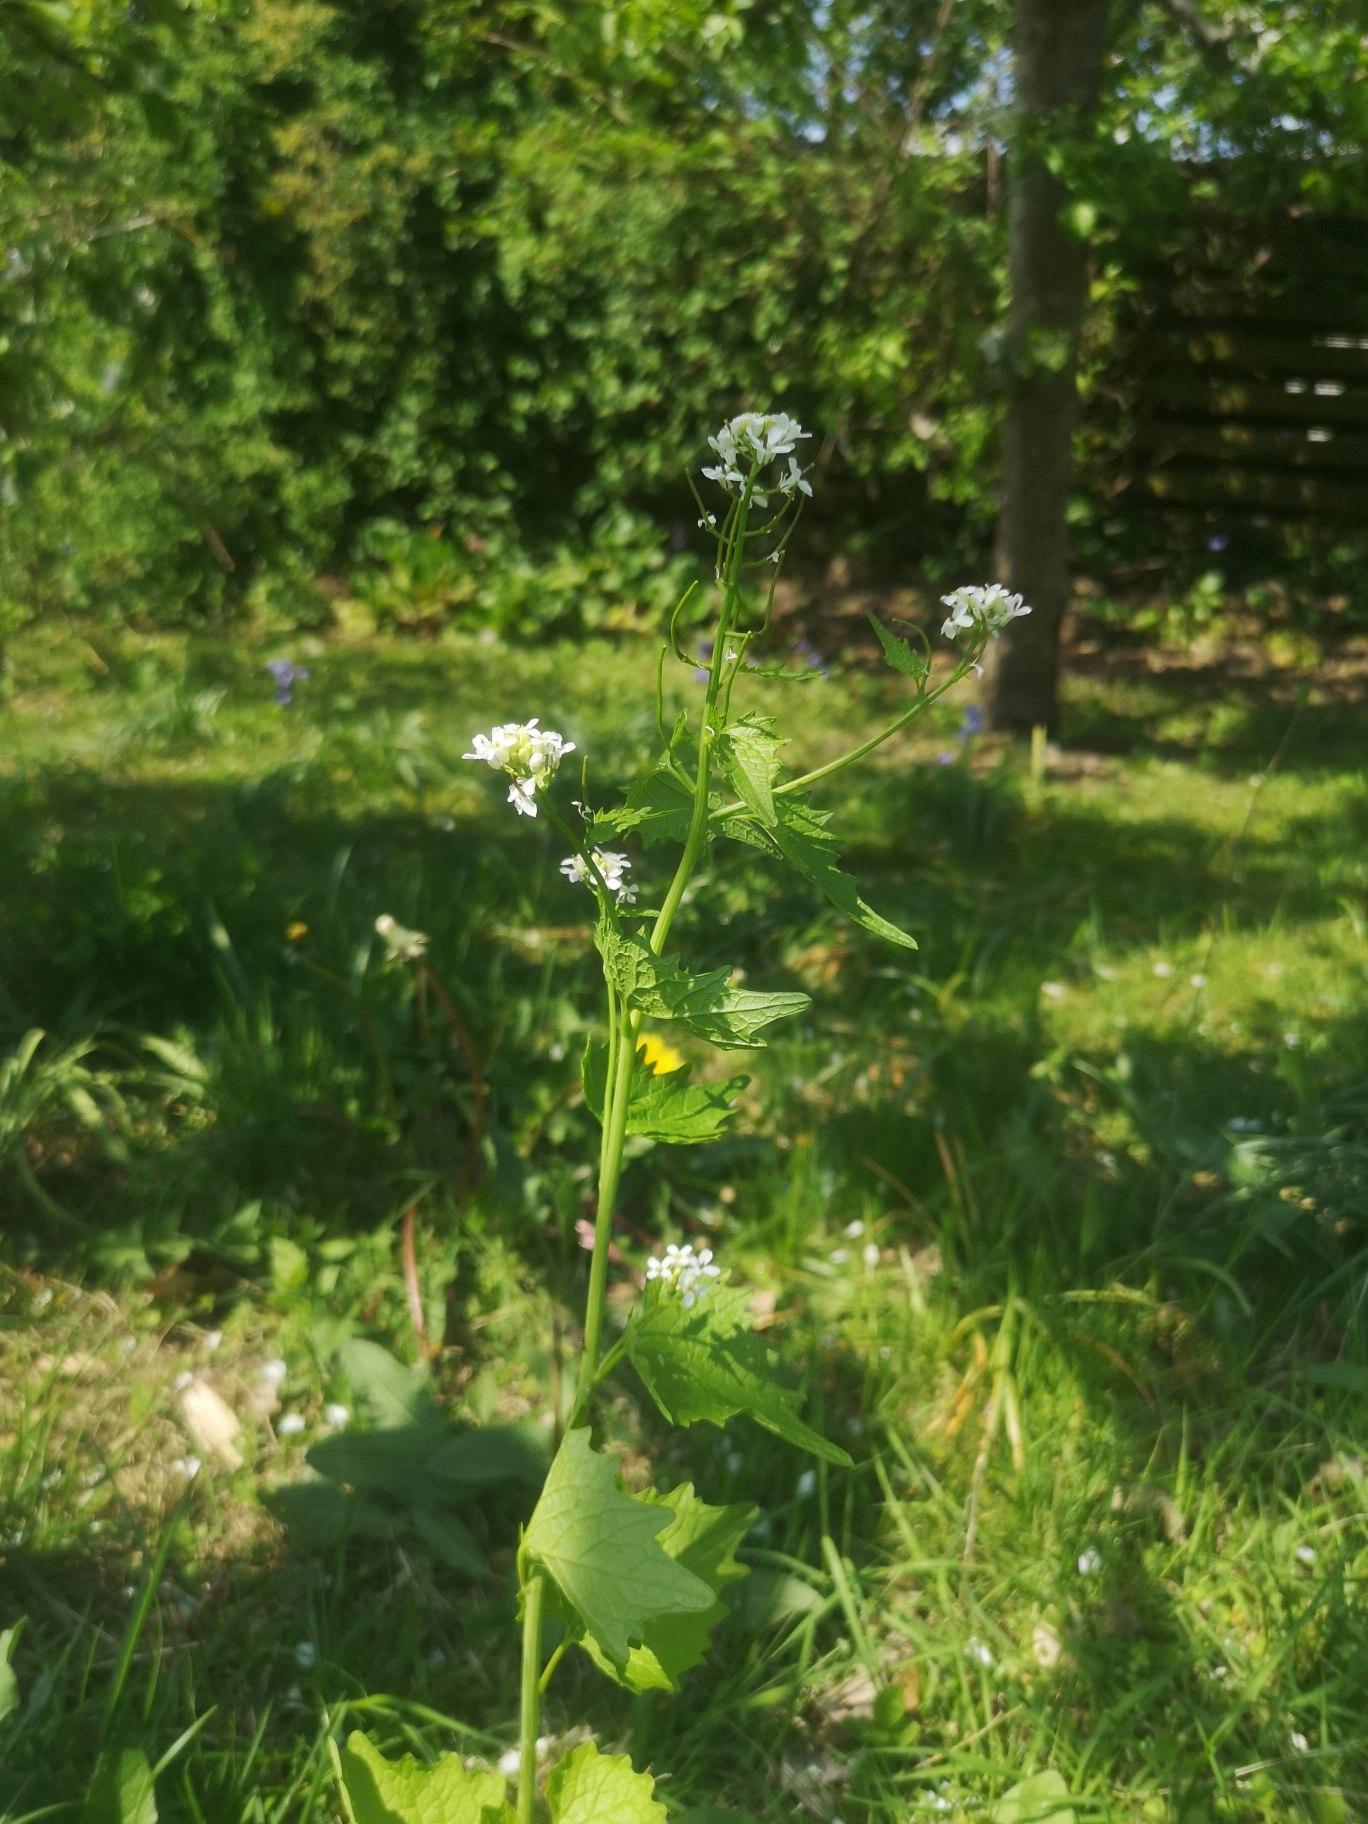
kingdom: Plantae
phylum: Tracheophyta
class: Magnoliopsida
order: Brassicales
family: Brassicaceae
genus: Alliaria
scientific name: Alliaria petiolata
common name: Løgkarse
